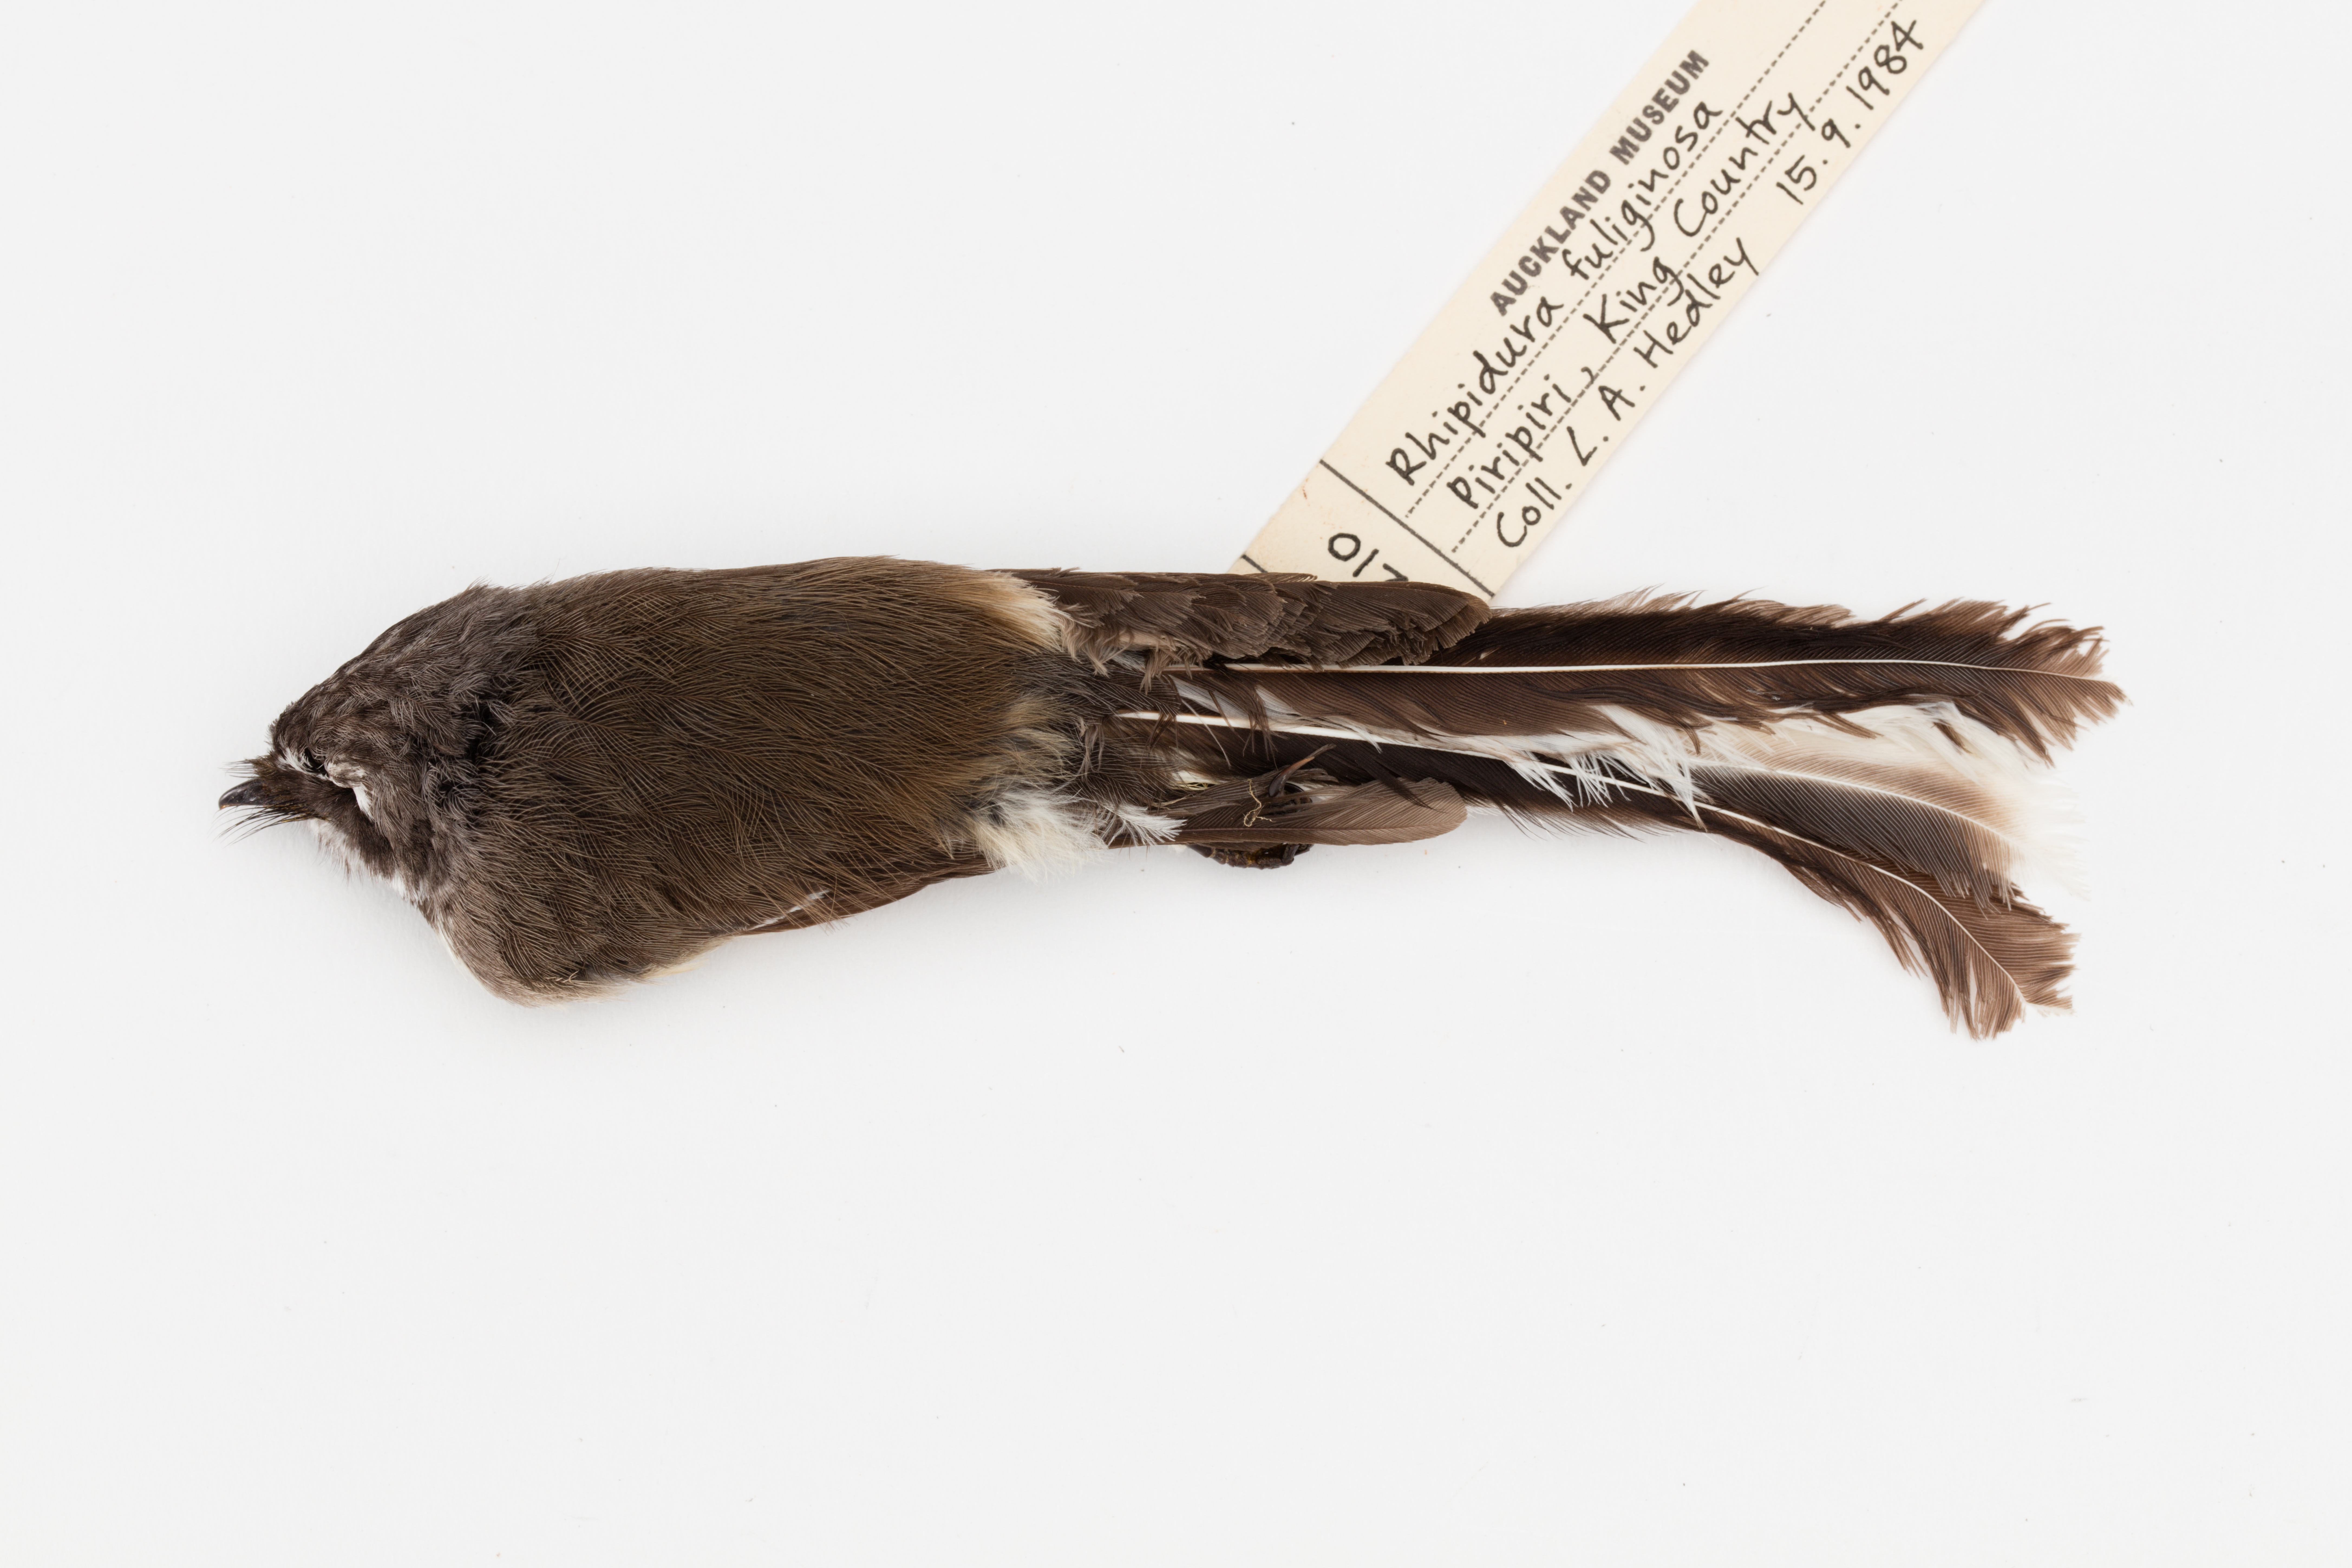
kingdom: Animalia
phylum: Chordata
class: Aves
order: Passeriformes
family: Rhipiduridae
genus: Rhipidura
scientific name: Rhipidura fuliginosa
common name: New zealand fantail
